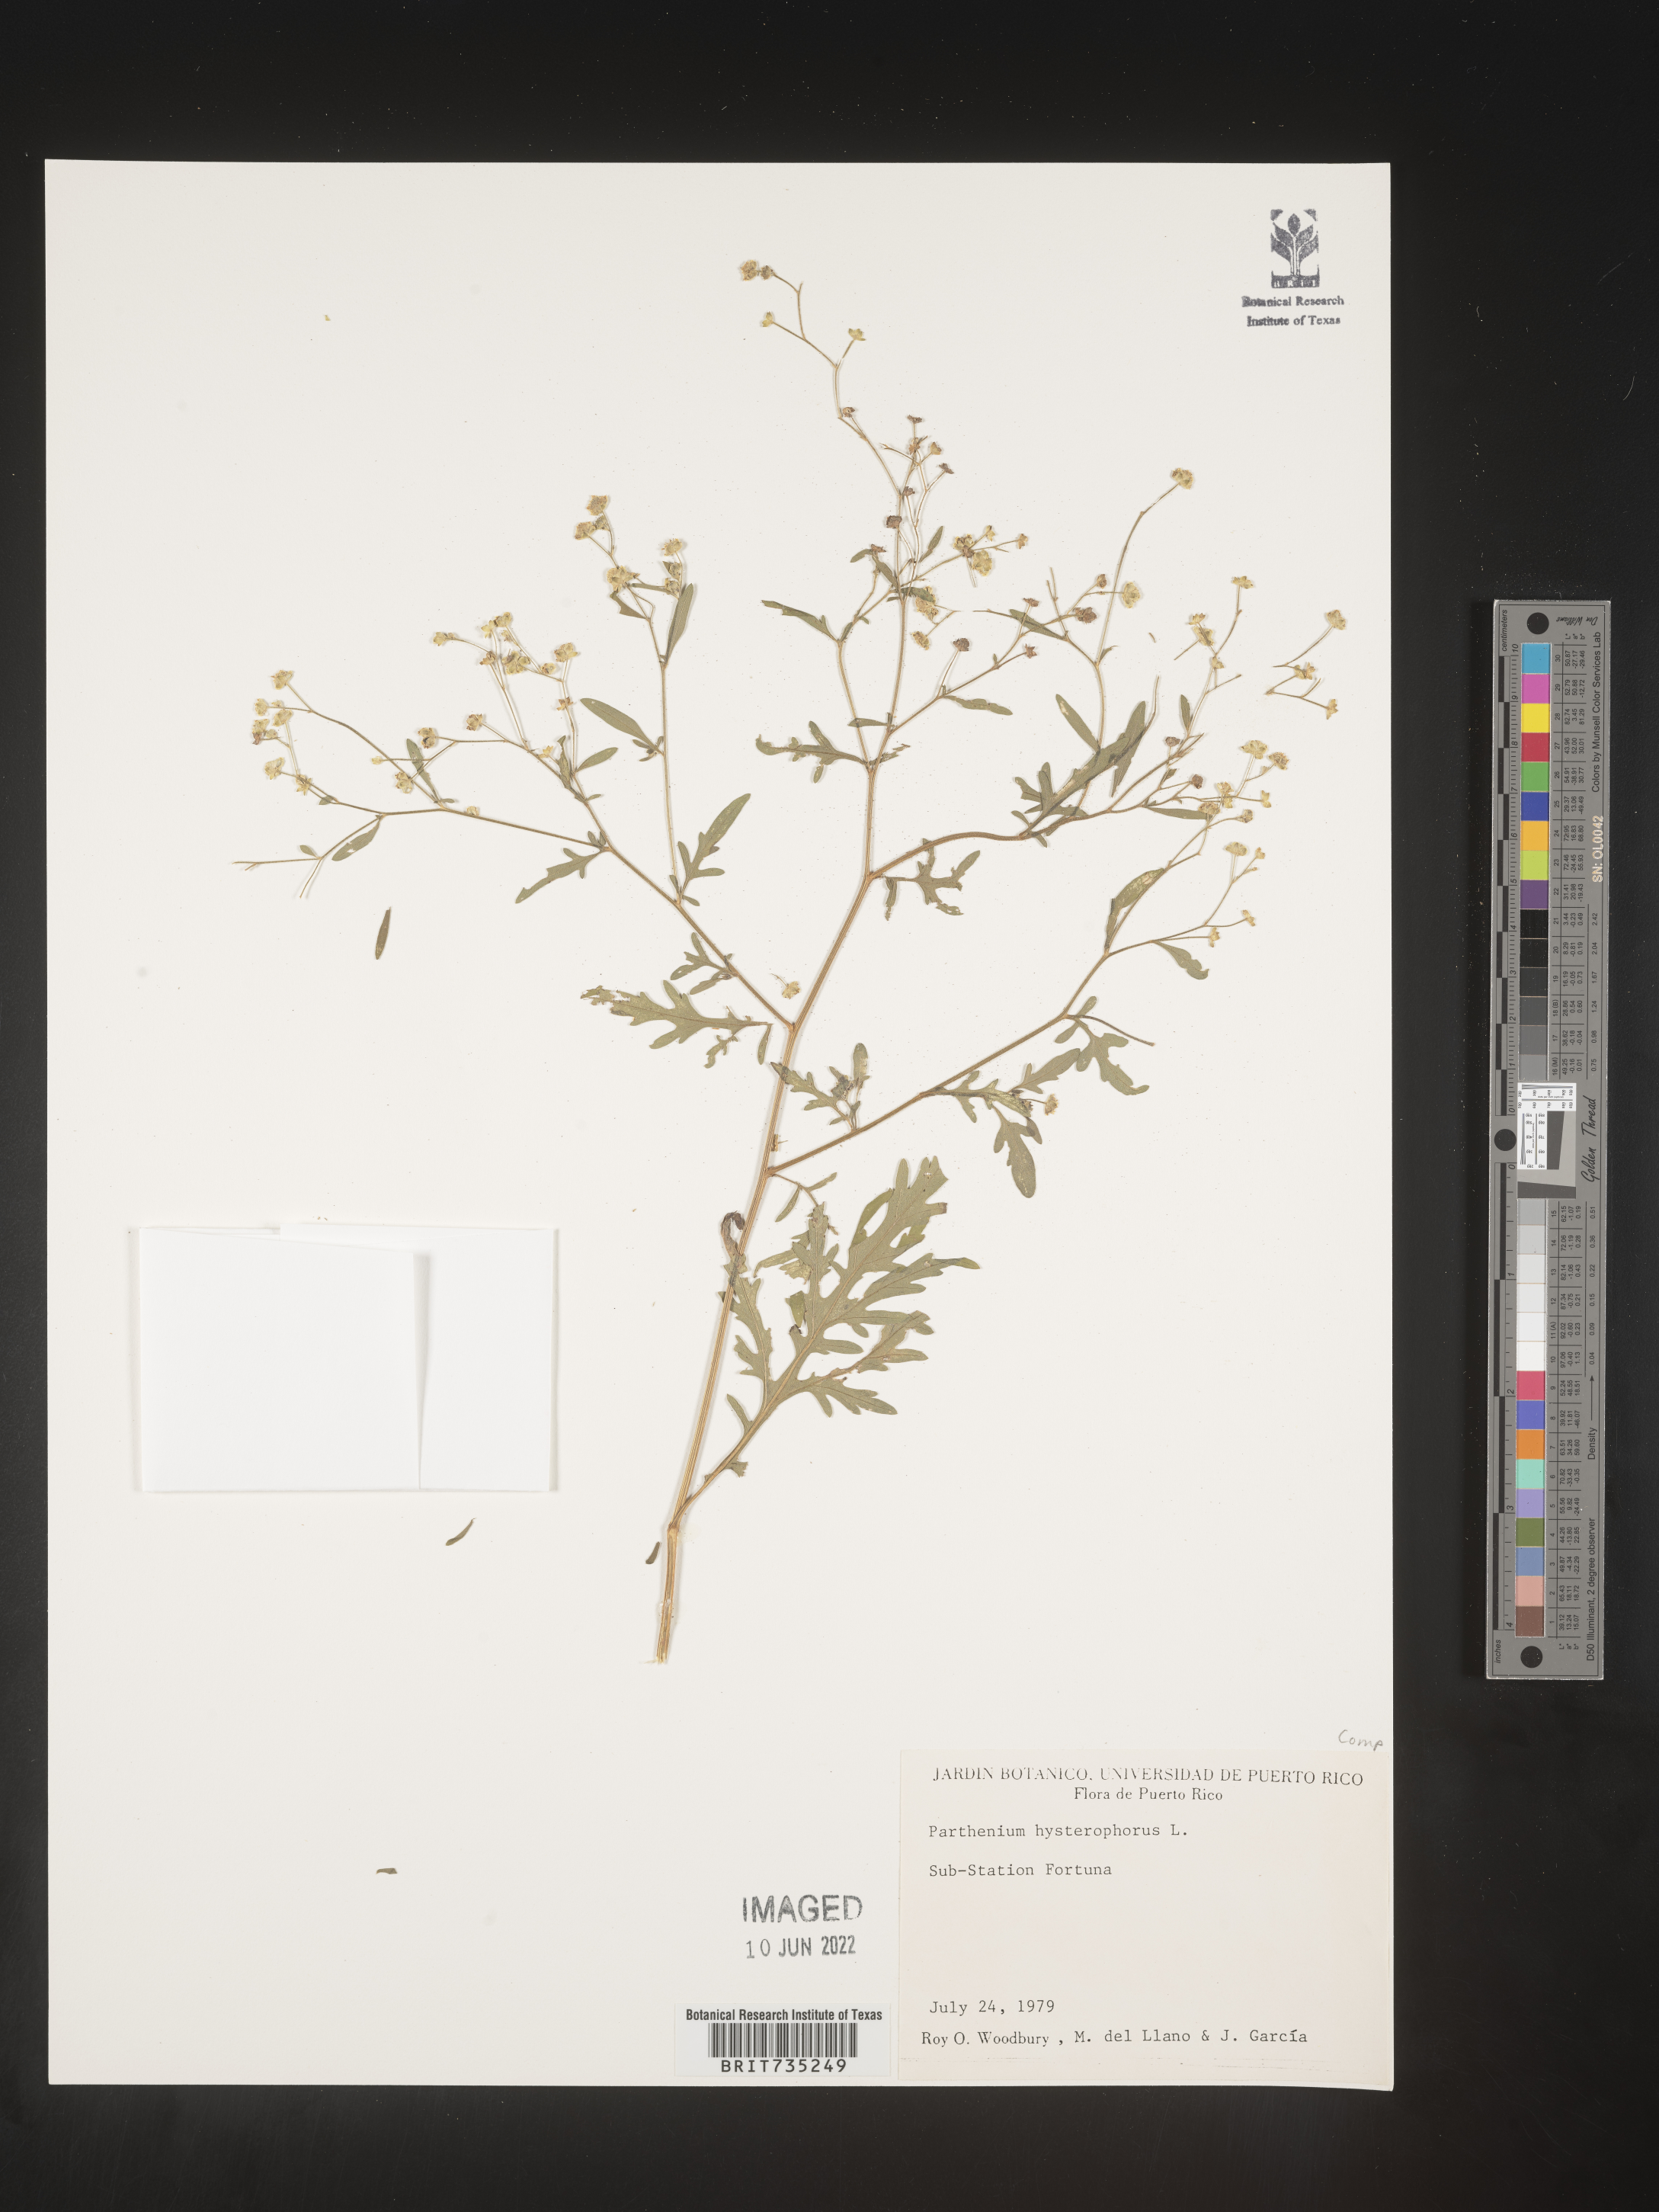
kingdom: Plantae
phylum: Tracheophyta
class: Magnoliopsida
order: Asterales
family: Asteraceae
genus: Parthenium
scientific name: Parthenium
